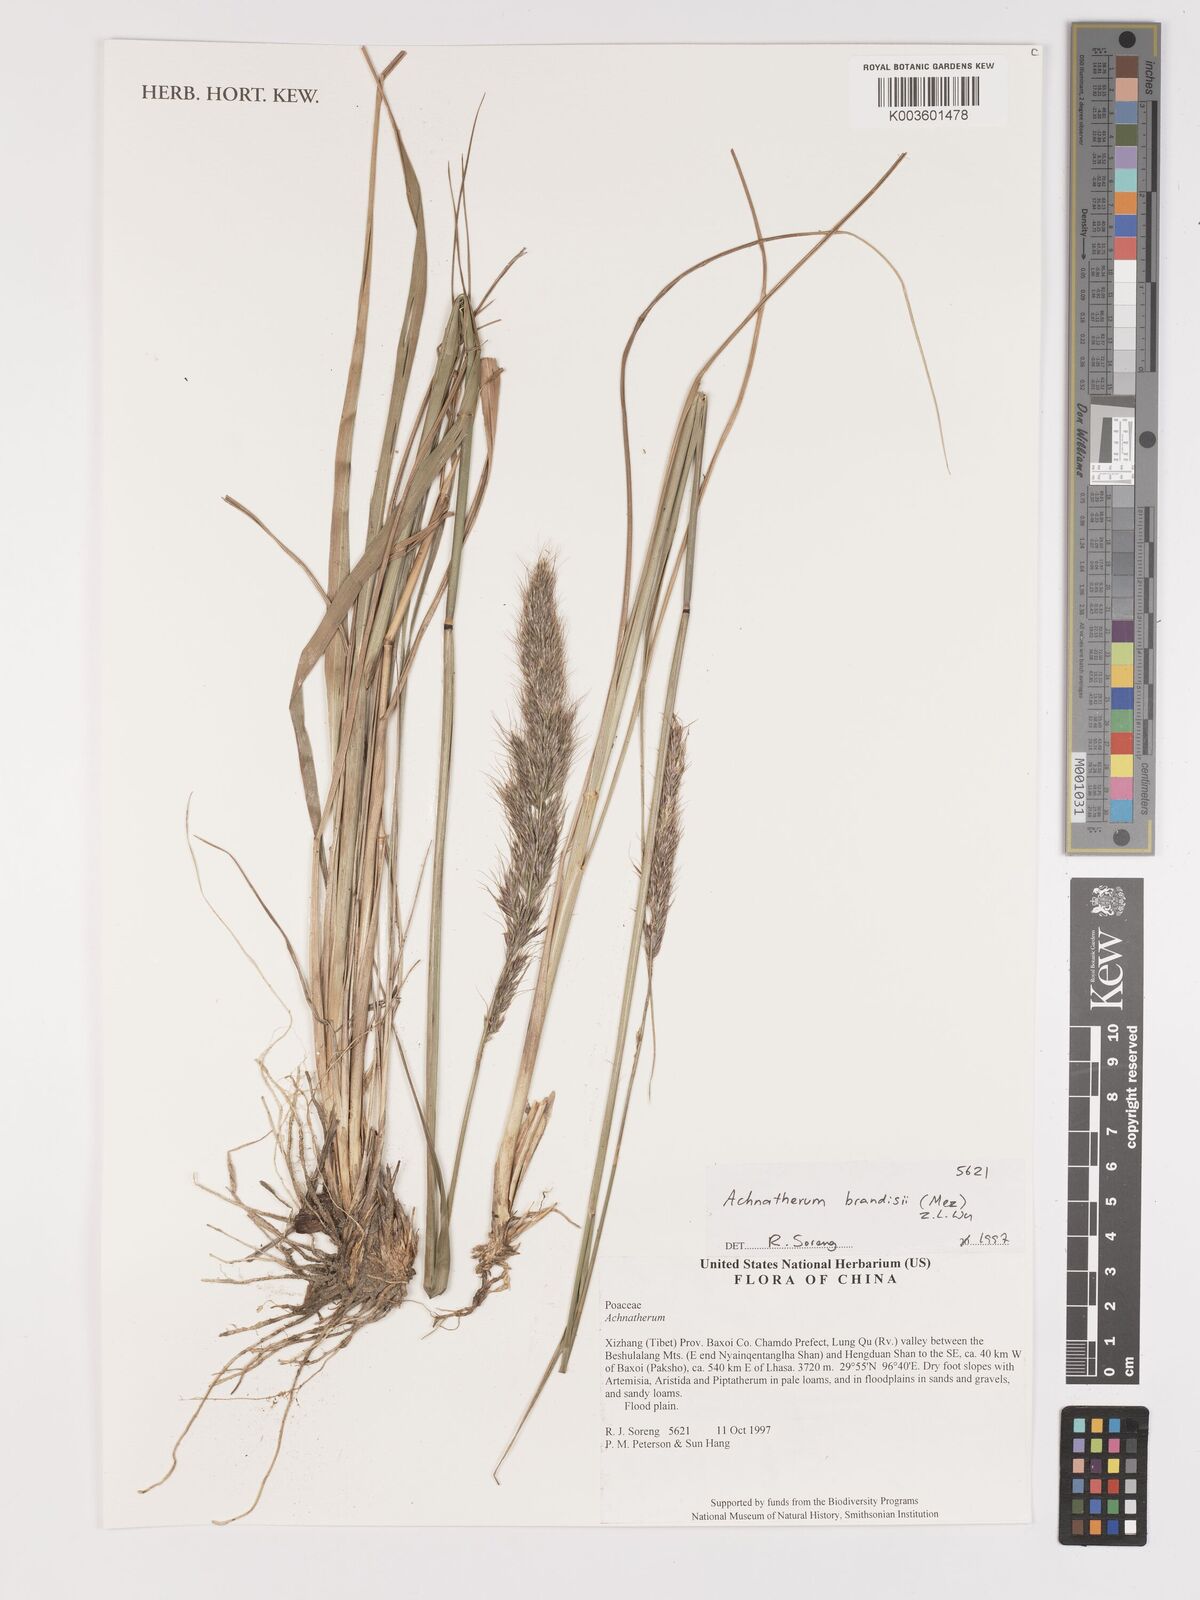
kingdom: Plantae
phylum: Tracheophyta
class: Liliopsida
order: Poales
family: Poaceae
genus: Achnatherum
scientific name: Achnatherum brandisii
